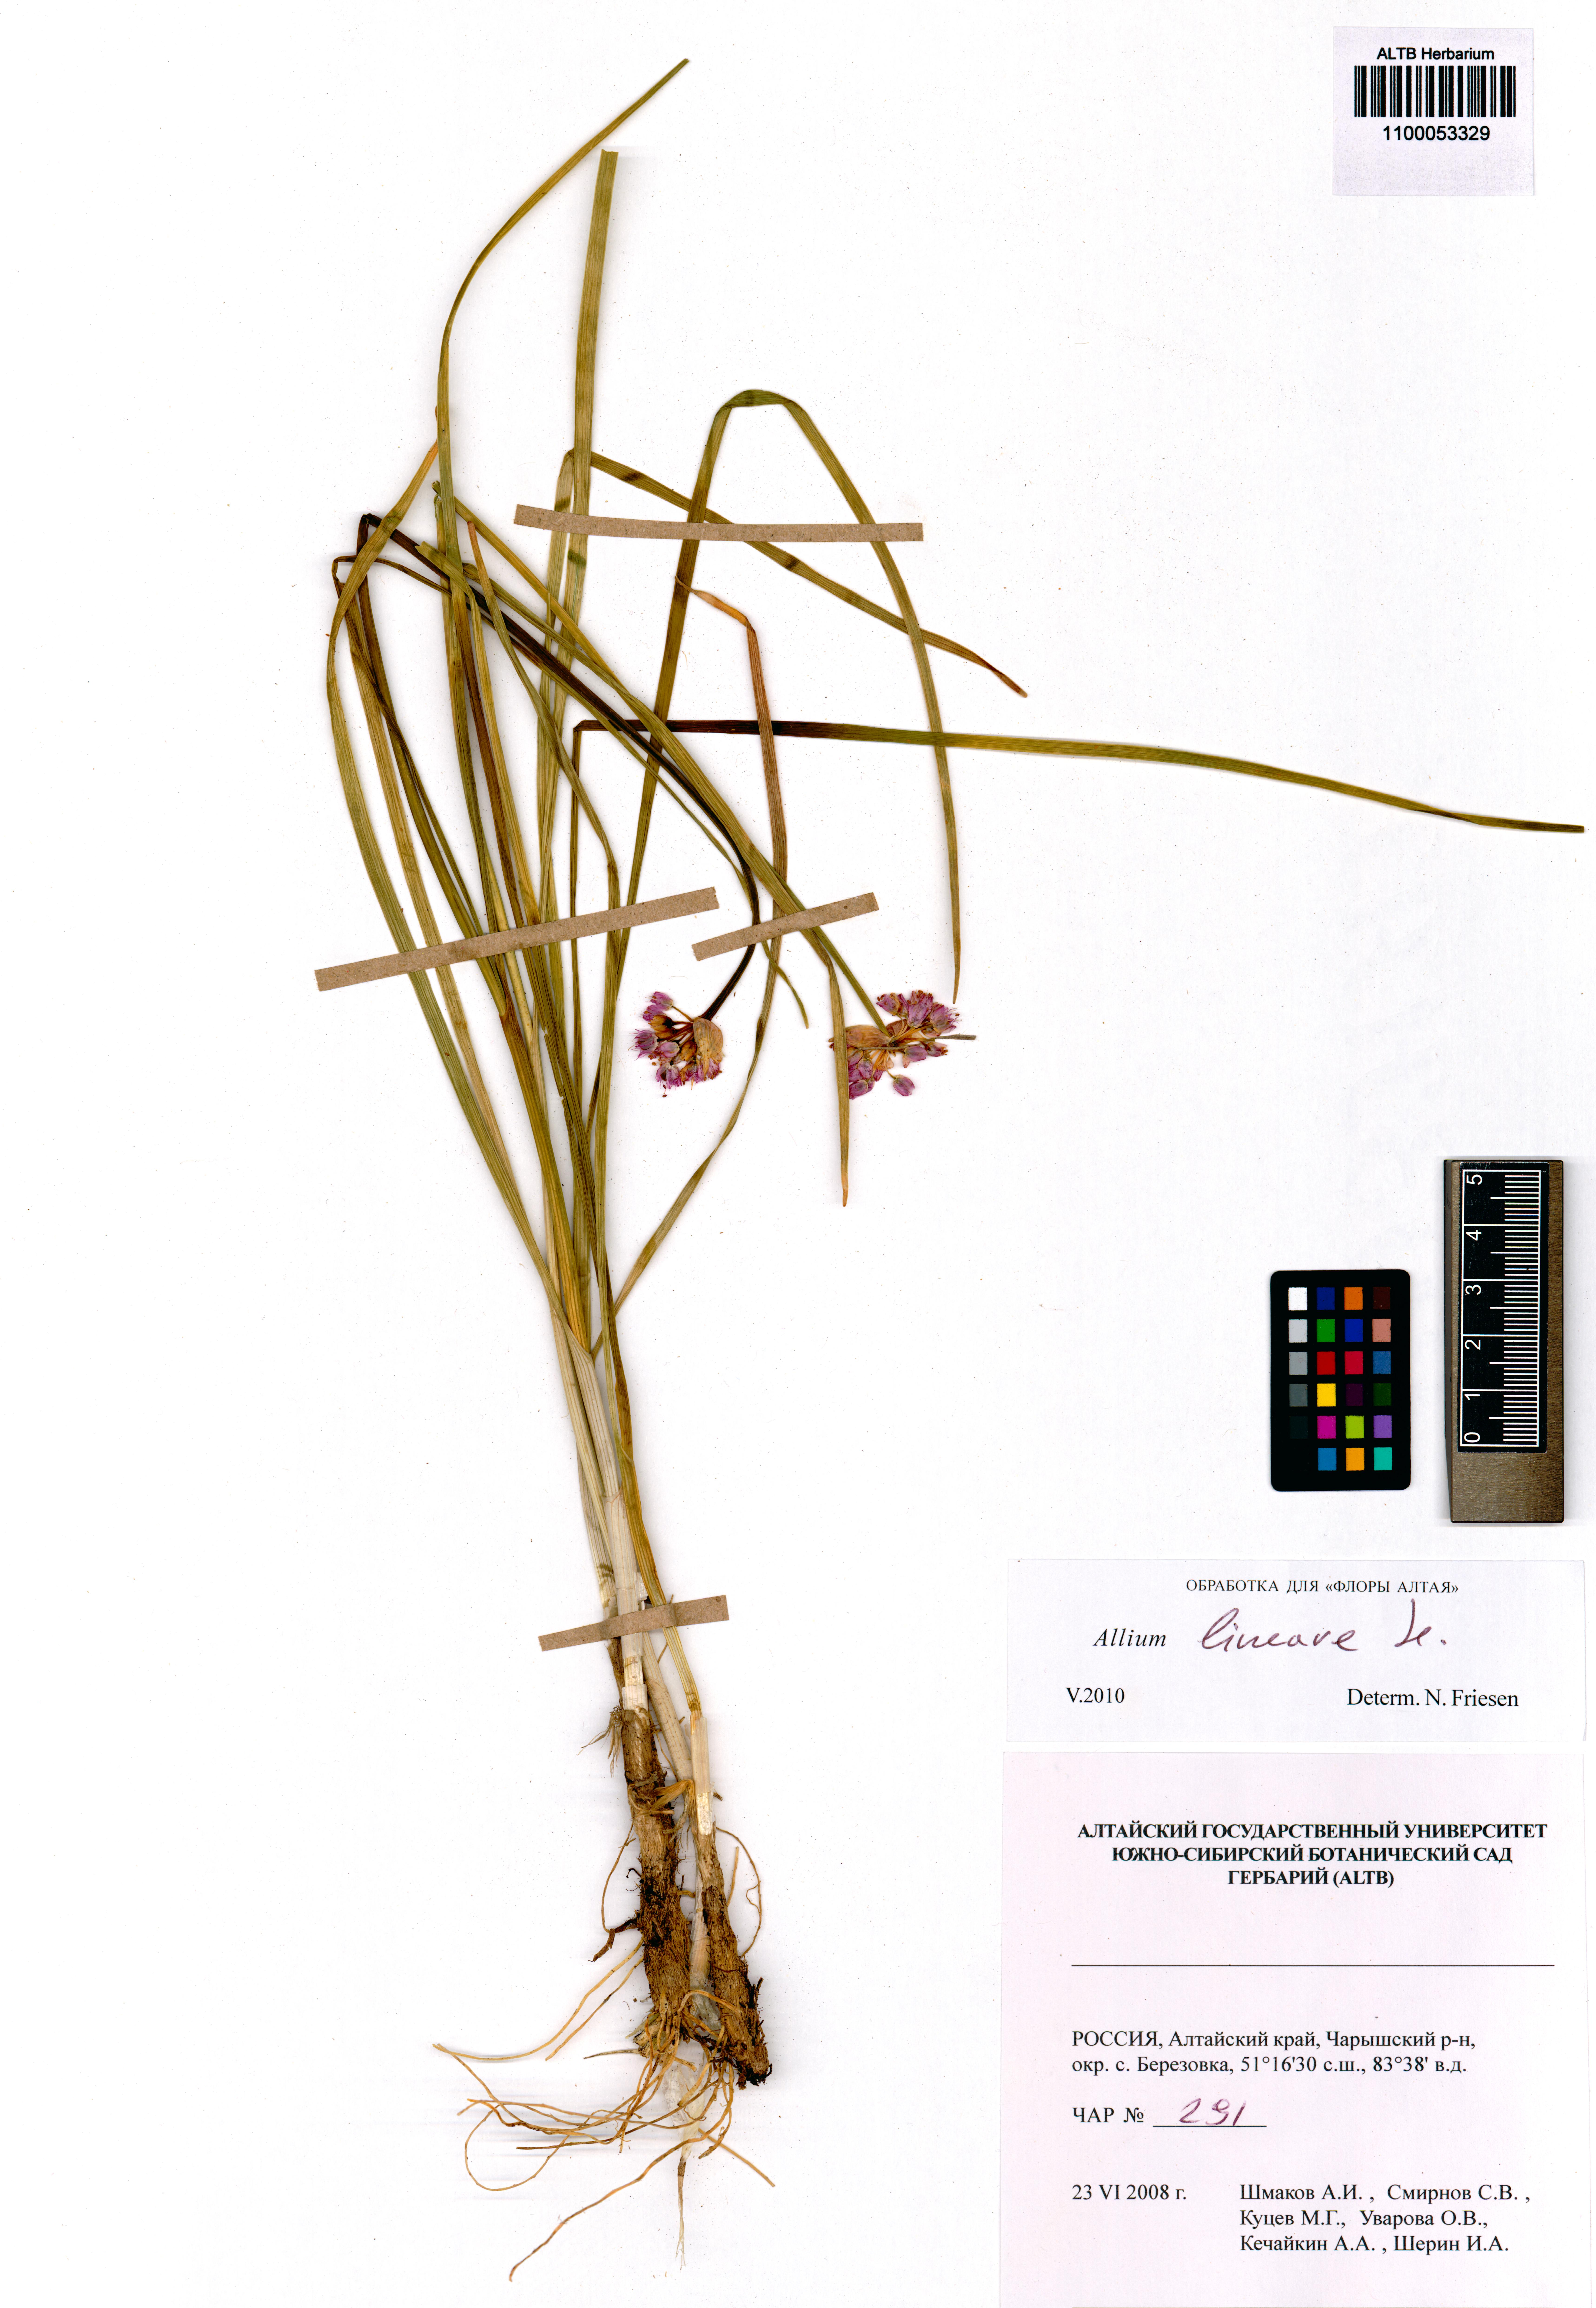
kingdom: Plantae
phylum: Tracheophyta
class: Liliopsida
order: Asparagales
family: Amaryllidaceae
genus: Allium
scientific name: Allium lineare
